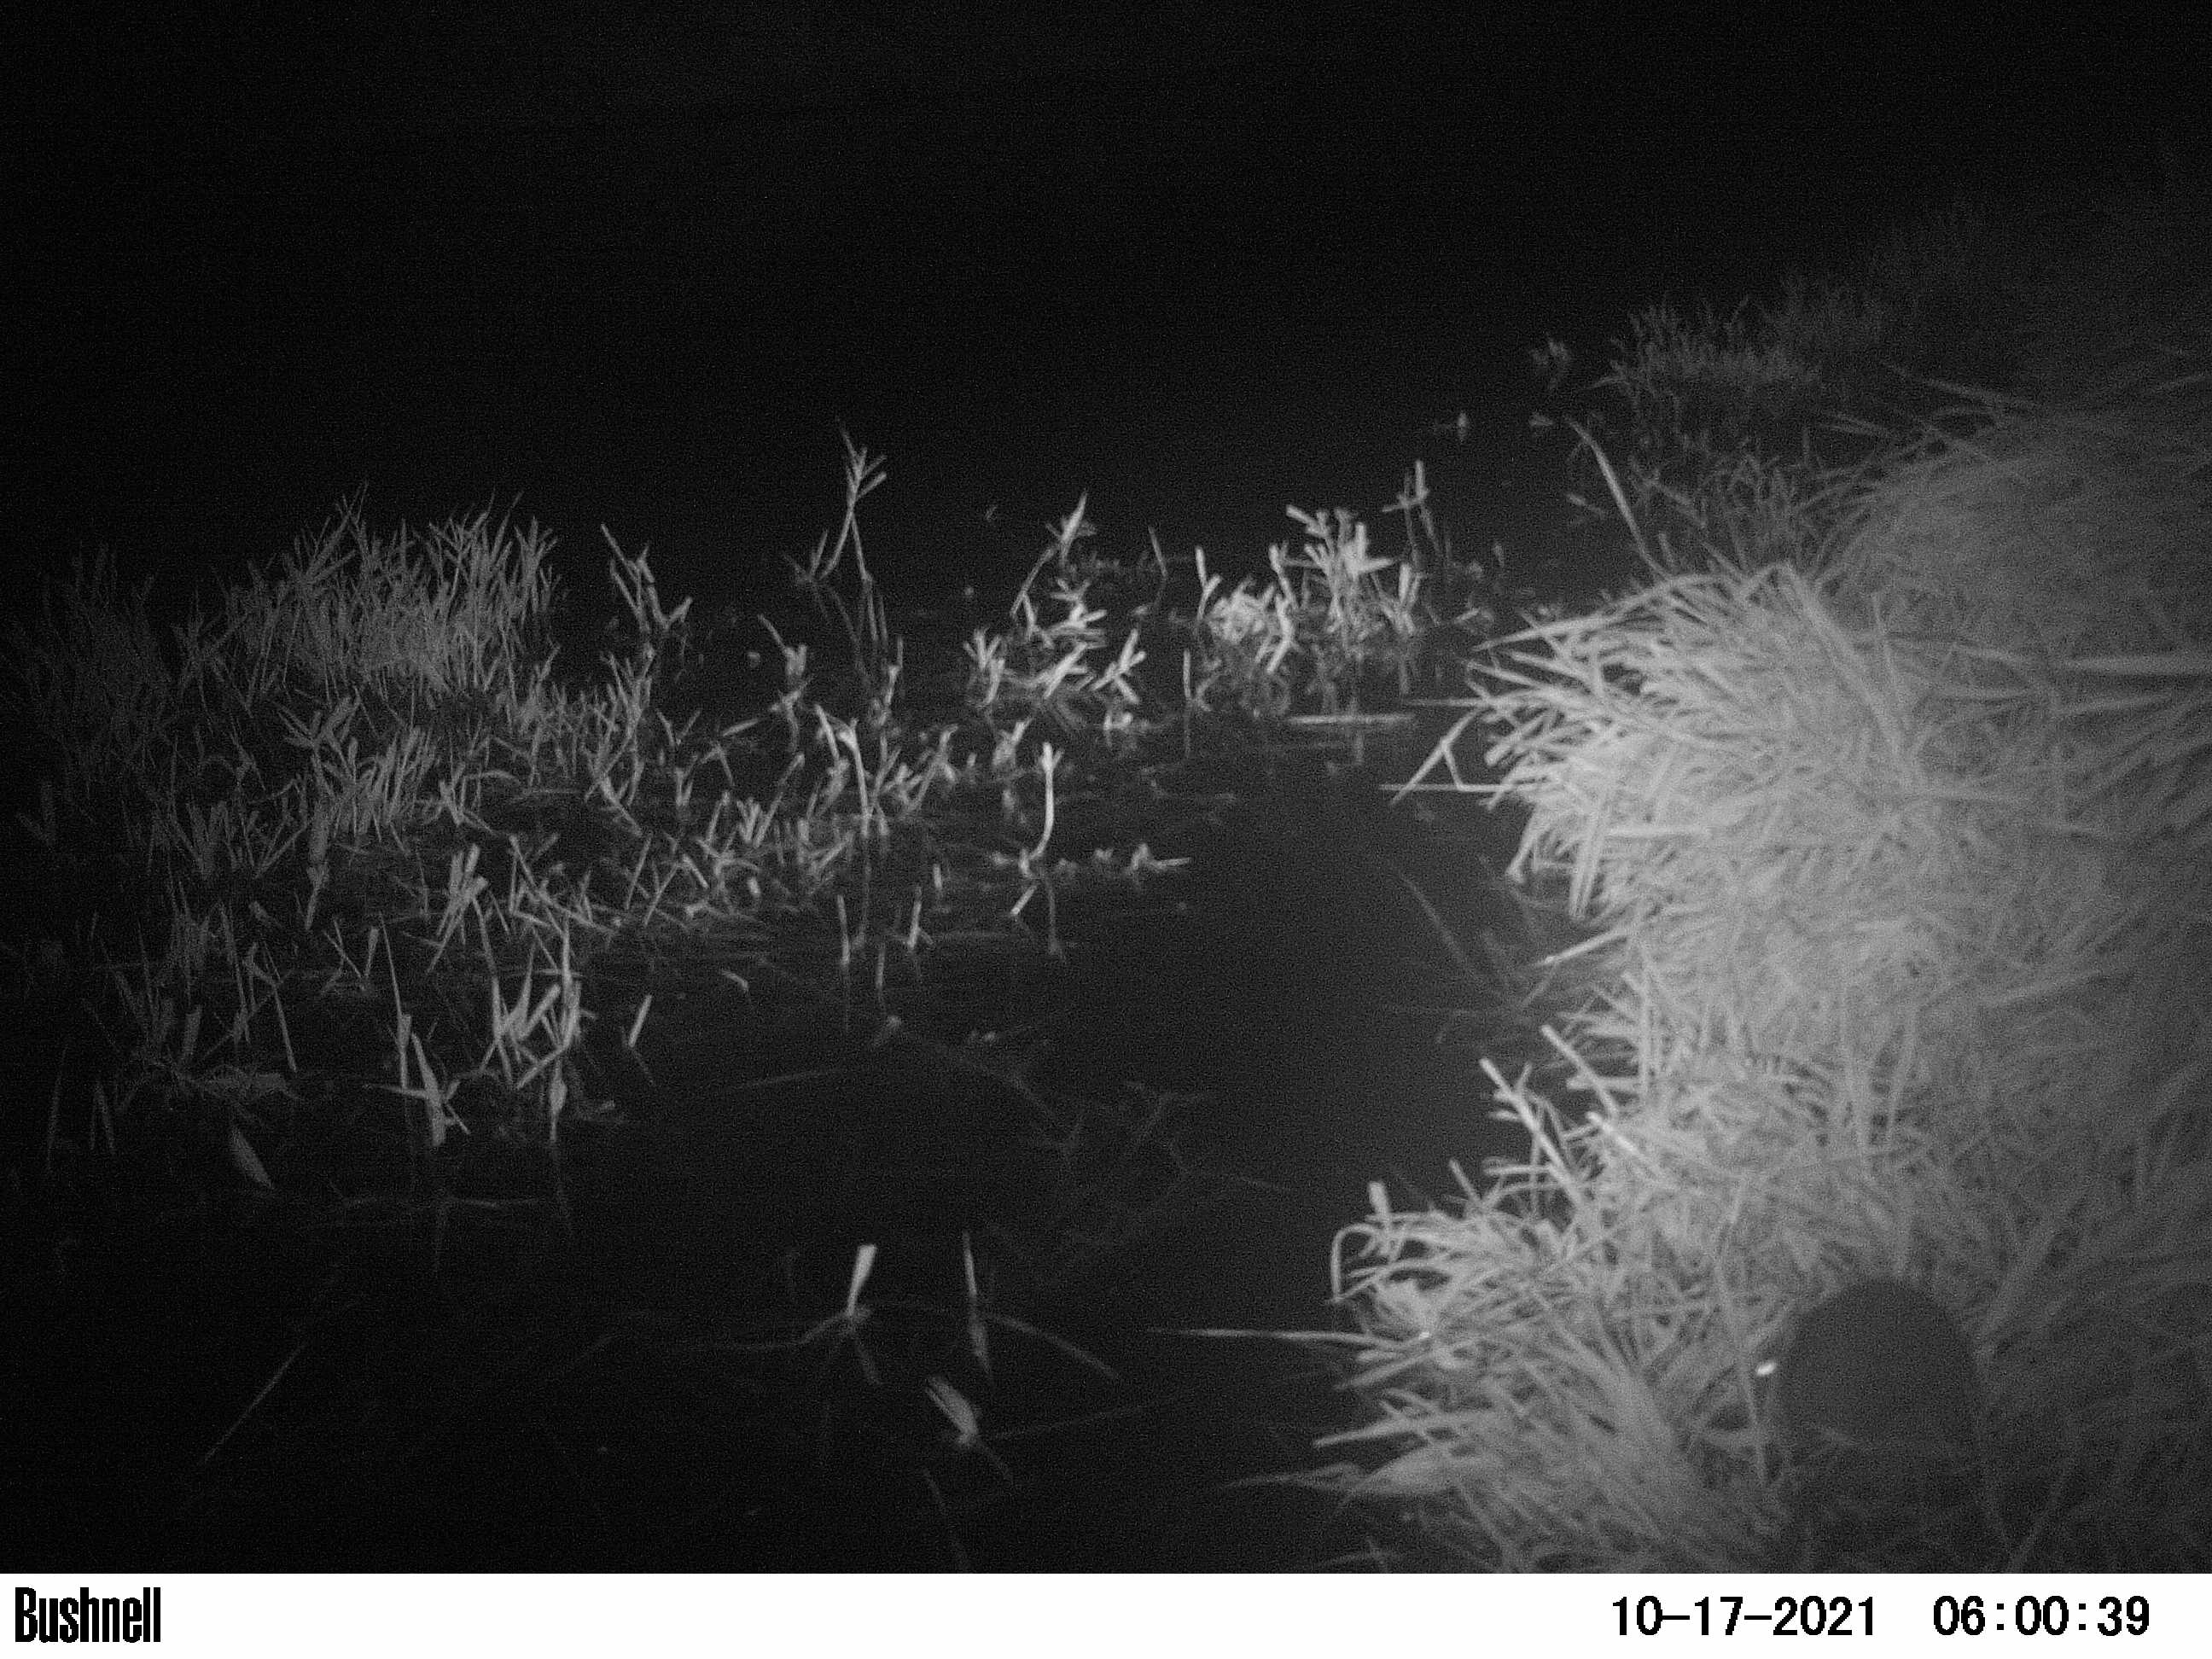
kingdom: Animalia
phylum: Chordata
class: Mammalia
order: Rodentia
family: Muridae
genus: Rattus
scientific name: Rattus norvegicus
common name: Brown rat
